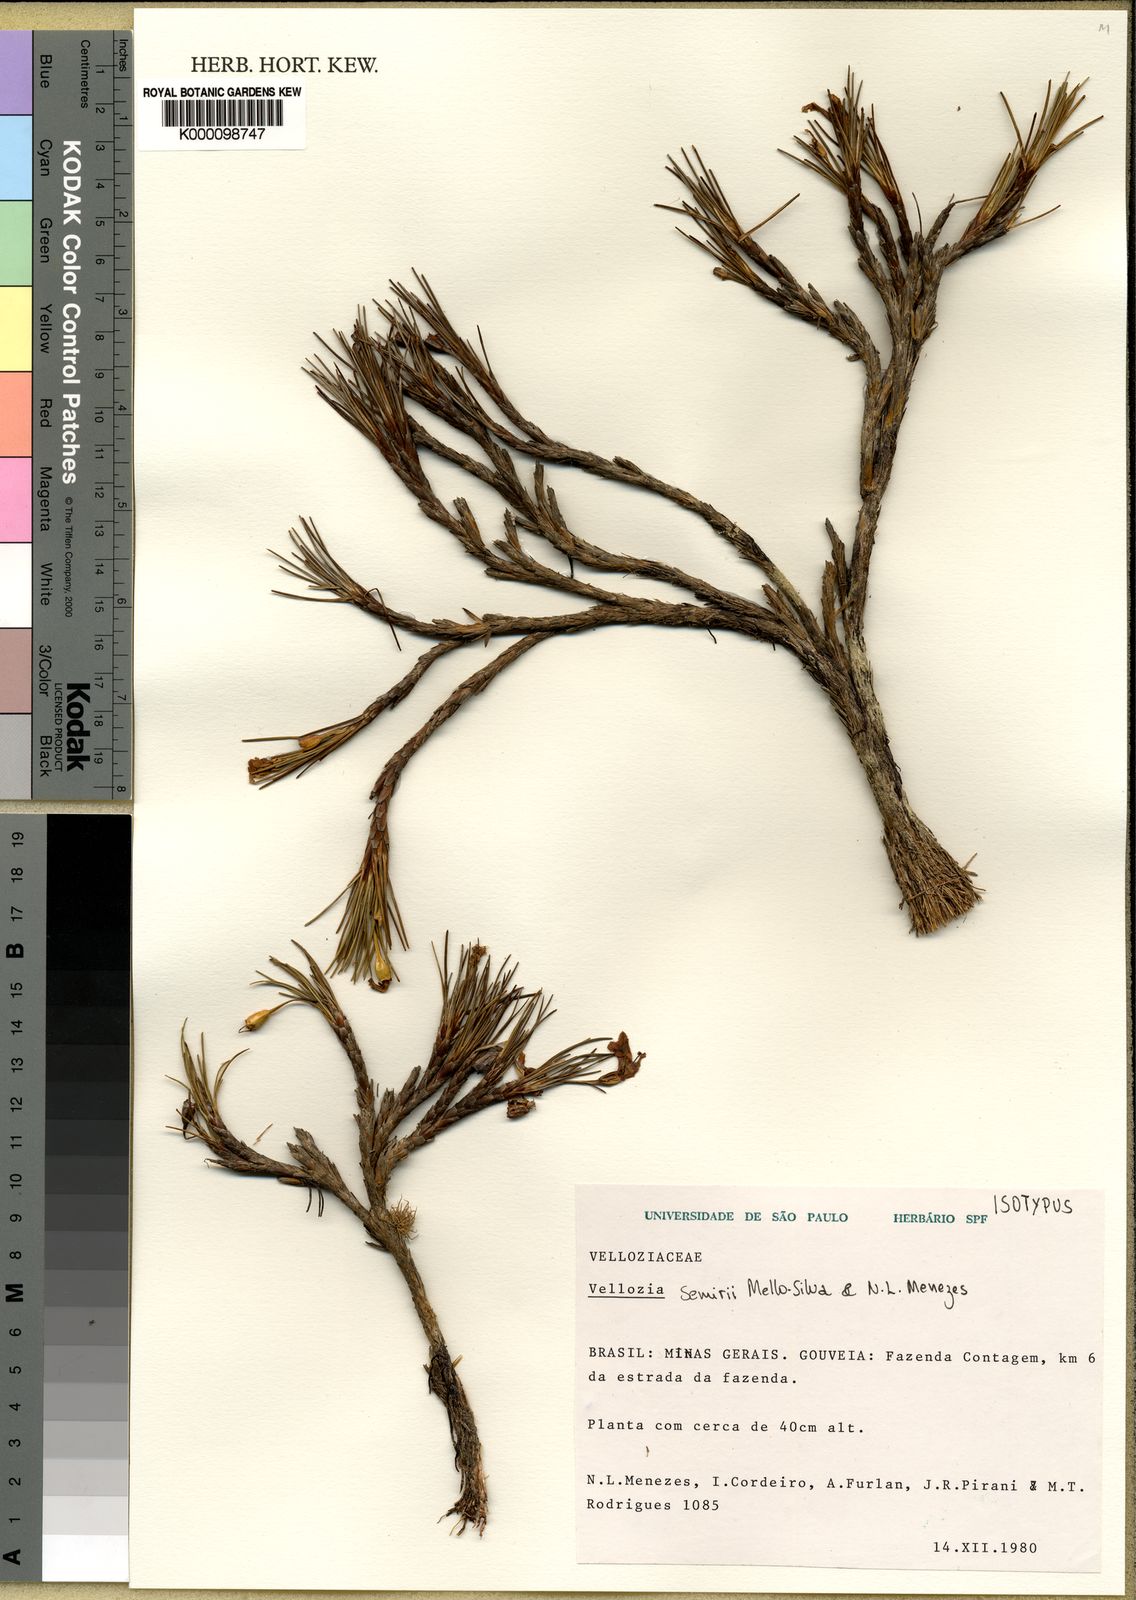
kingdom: Plantae
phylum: Tracheophyta
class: Liliopsida
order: Pandanales
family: Velloziaceae
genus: Vellozia
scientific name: Vellozia semirii
